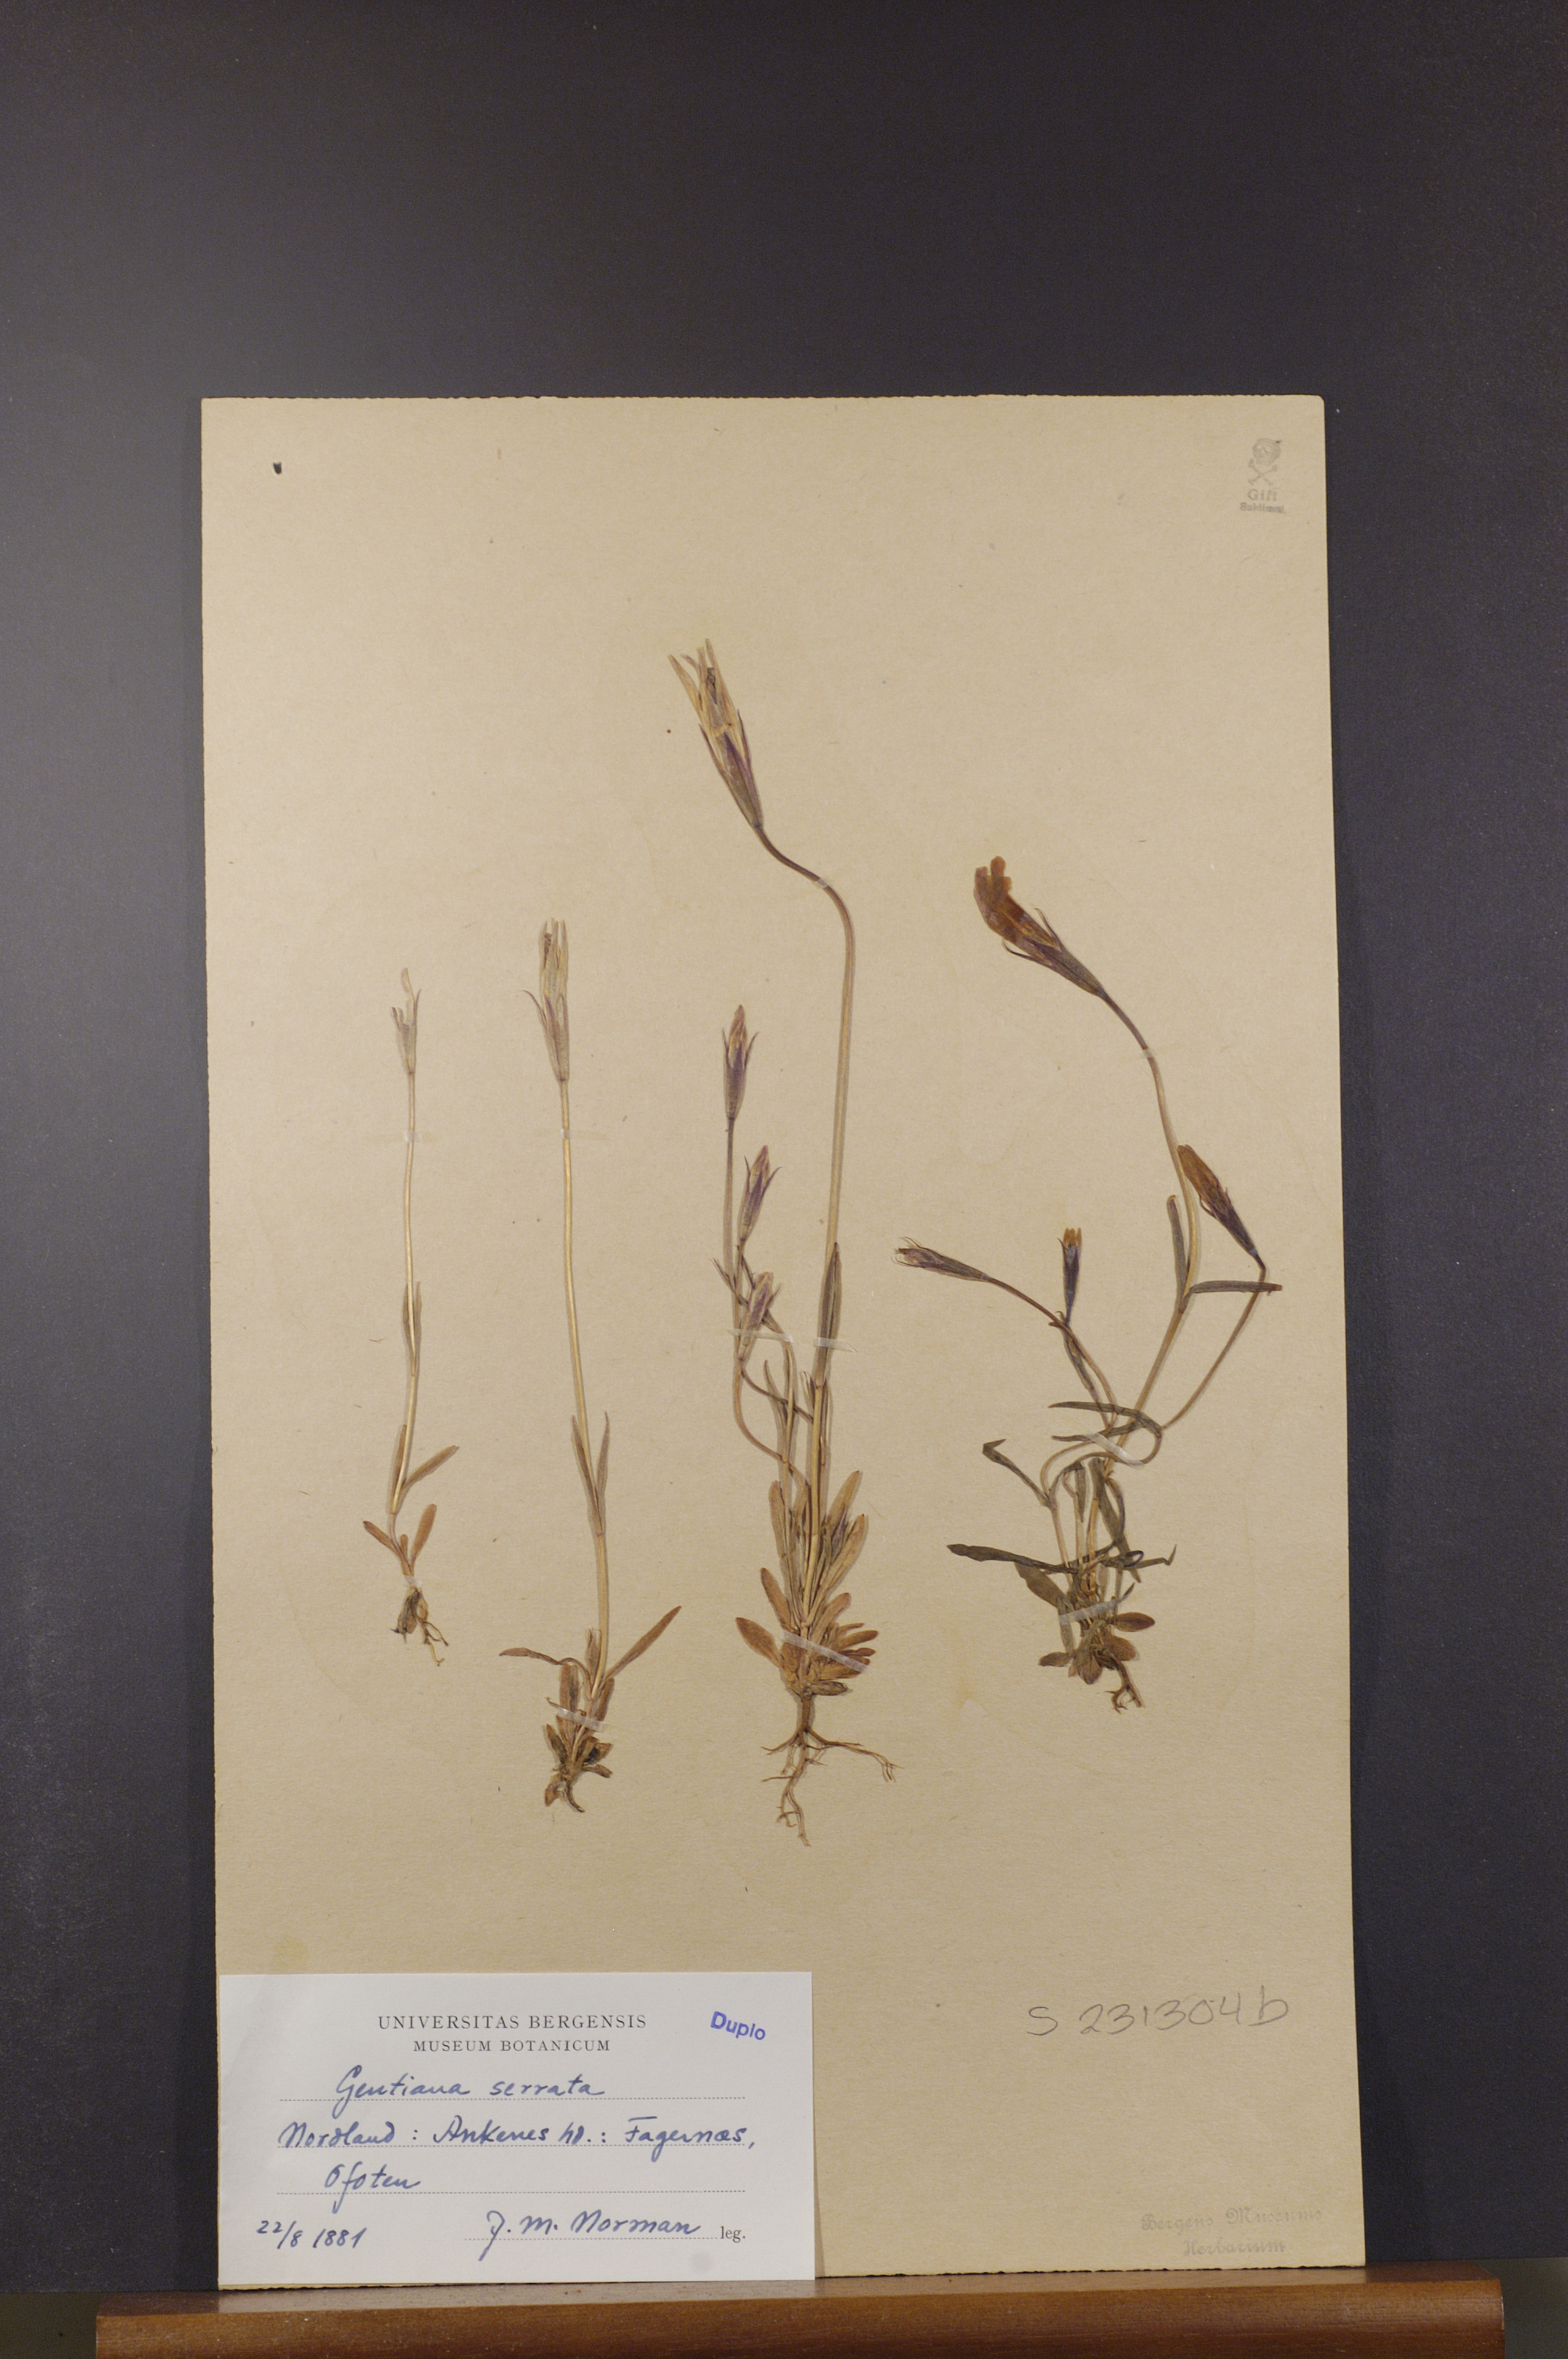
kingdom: Plantae
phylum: Tracheophyta
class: Magnoliopsida
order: Gentianales
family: Gentianaceae
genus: Gentianopsis
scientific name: Gentianopsis detonsa
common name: Fringed-gentian
